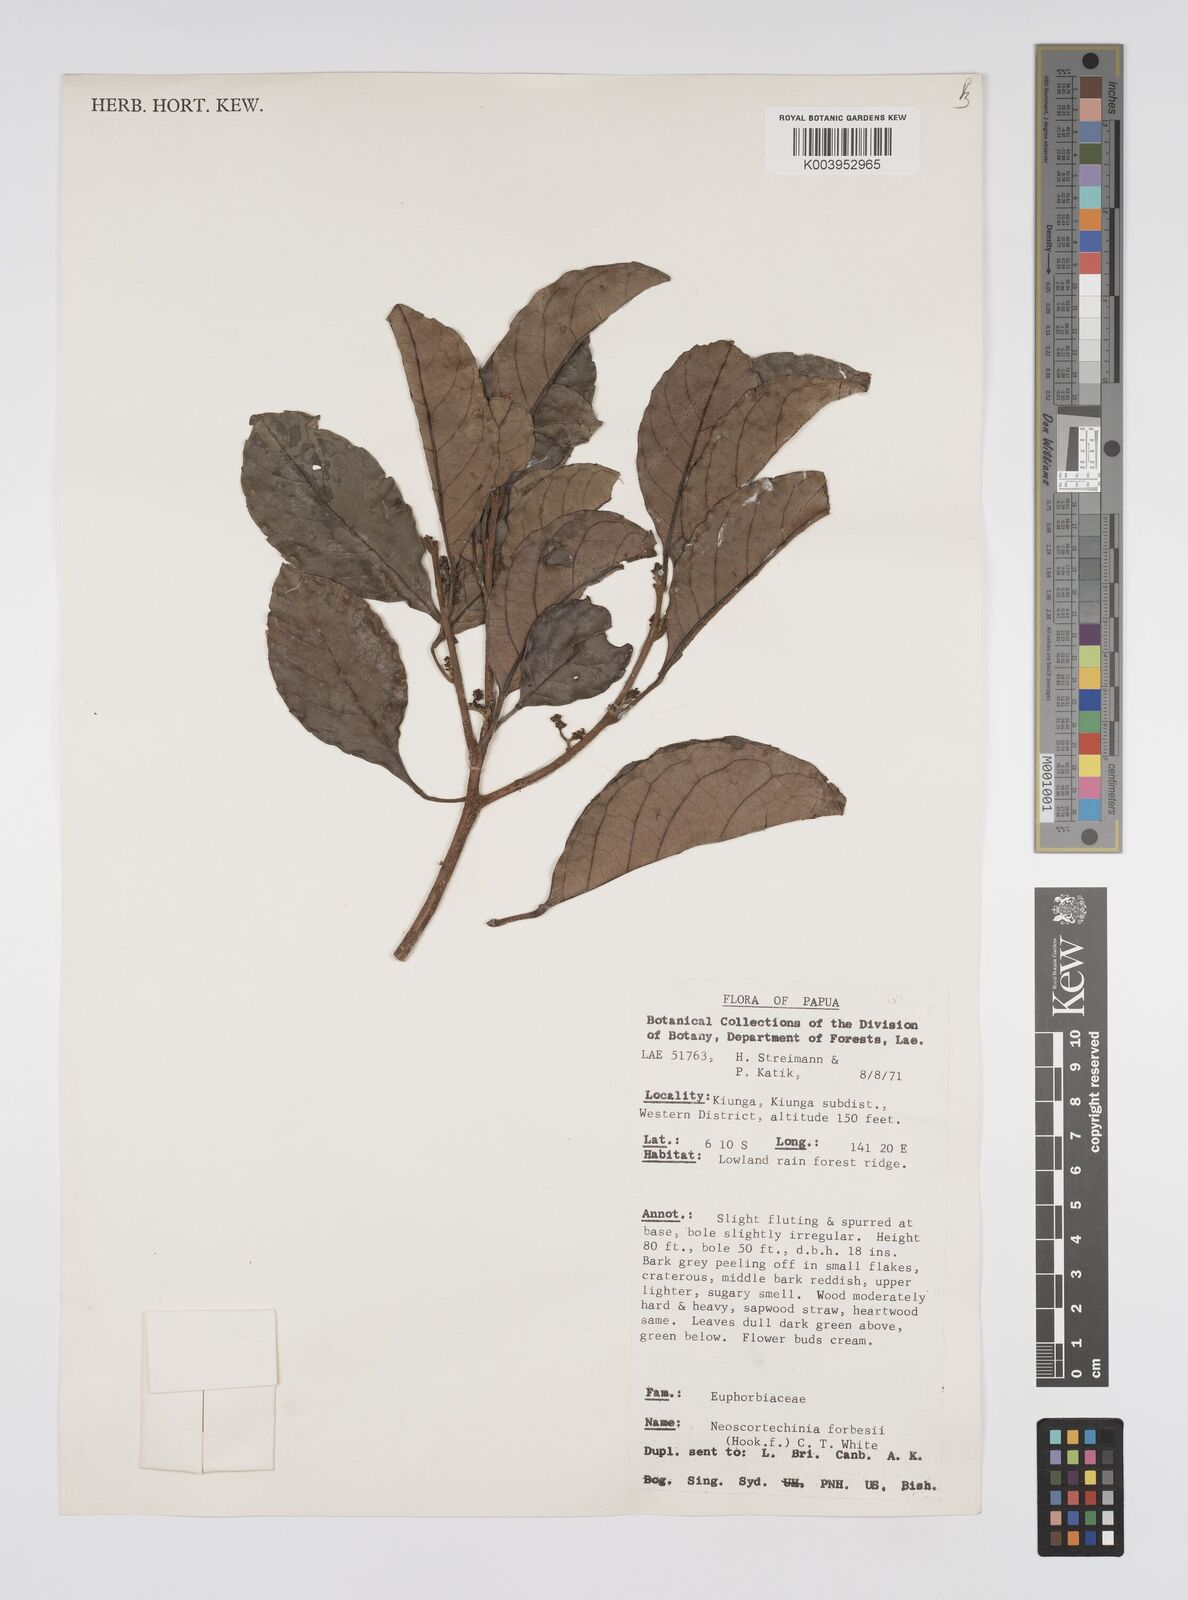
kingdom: Plantae
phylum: Tracheophyta
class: Magnoliopsida
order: Malpighiales
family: Euphorbiaceae
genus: Neoscortechinia
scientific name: Neoscortechinia forbesii
